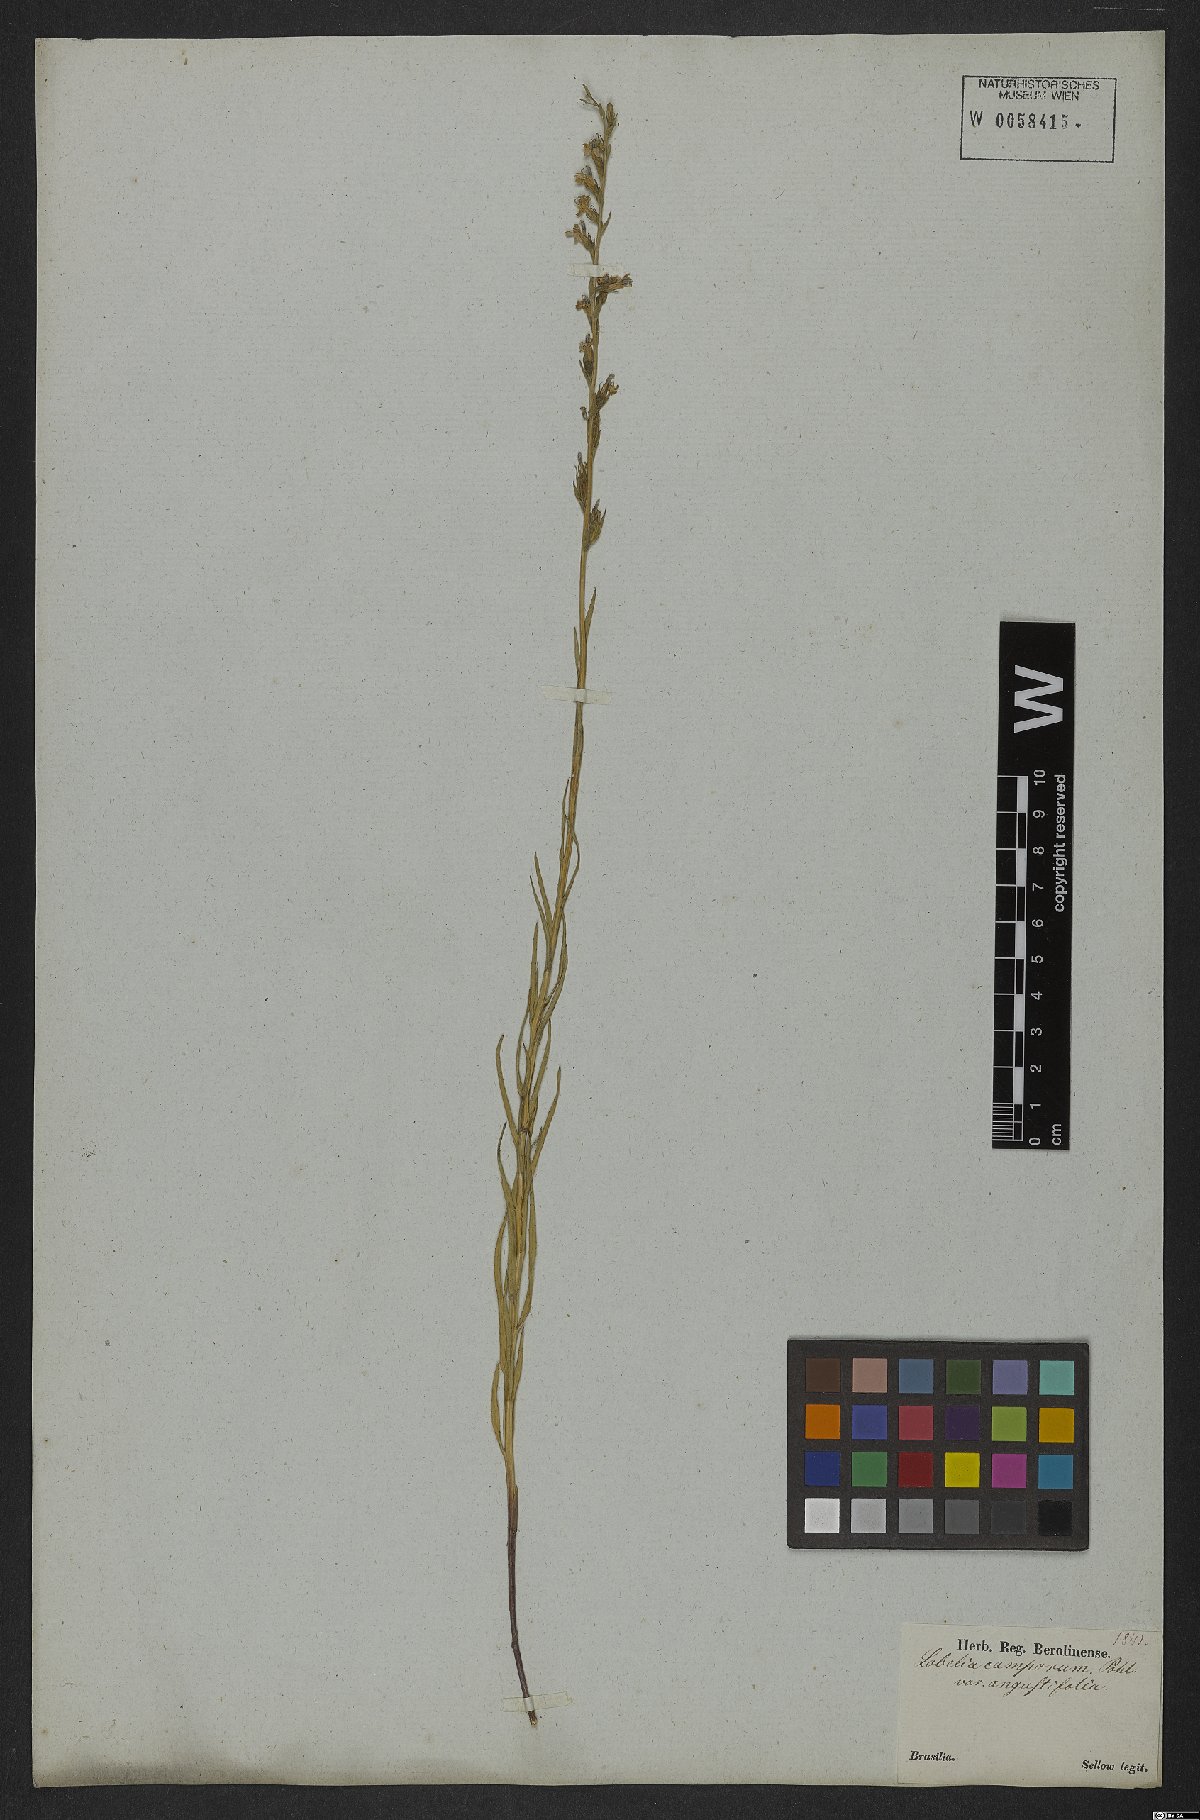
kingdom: Plantae
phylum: Tracheophyta
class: Magnoliopsida
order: Asterales
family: Campanulaceae
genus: Lobelia
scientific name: Lobelia camporum
